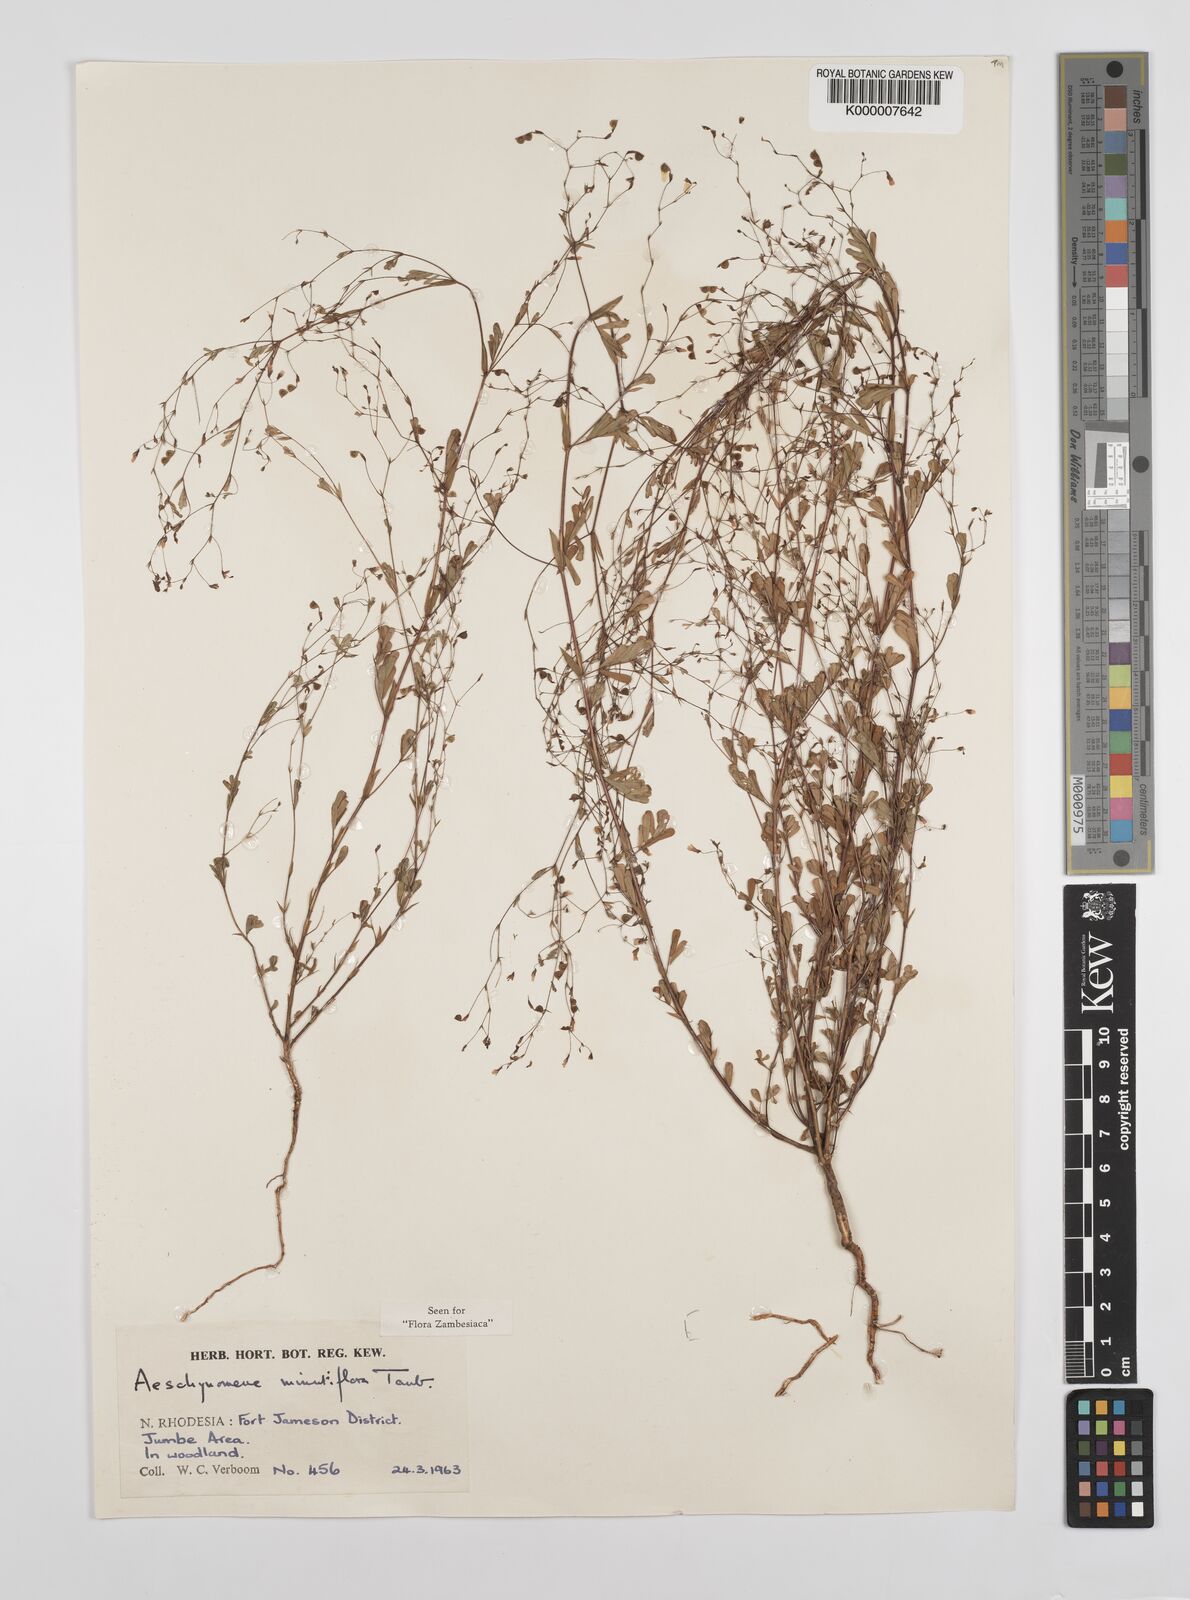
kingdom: Plantae
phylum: Tracheophyta
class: Magnoliopsida
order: Fabales
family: Fabaceae
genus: Aeschynomene
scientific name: Aeschynomene minutiflora
